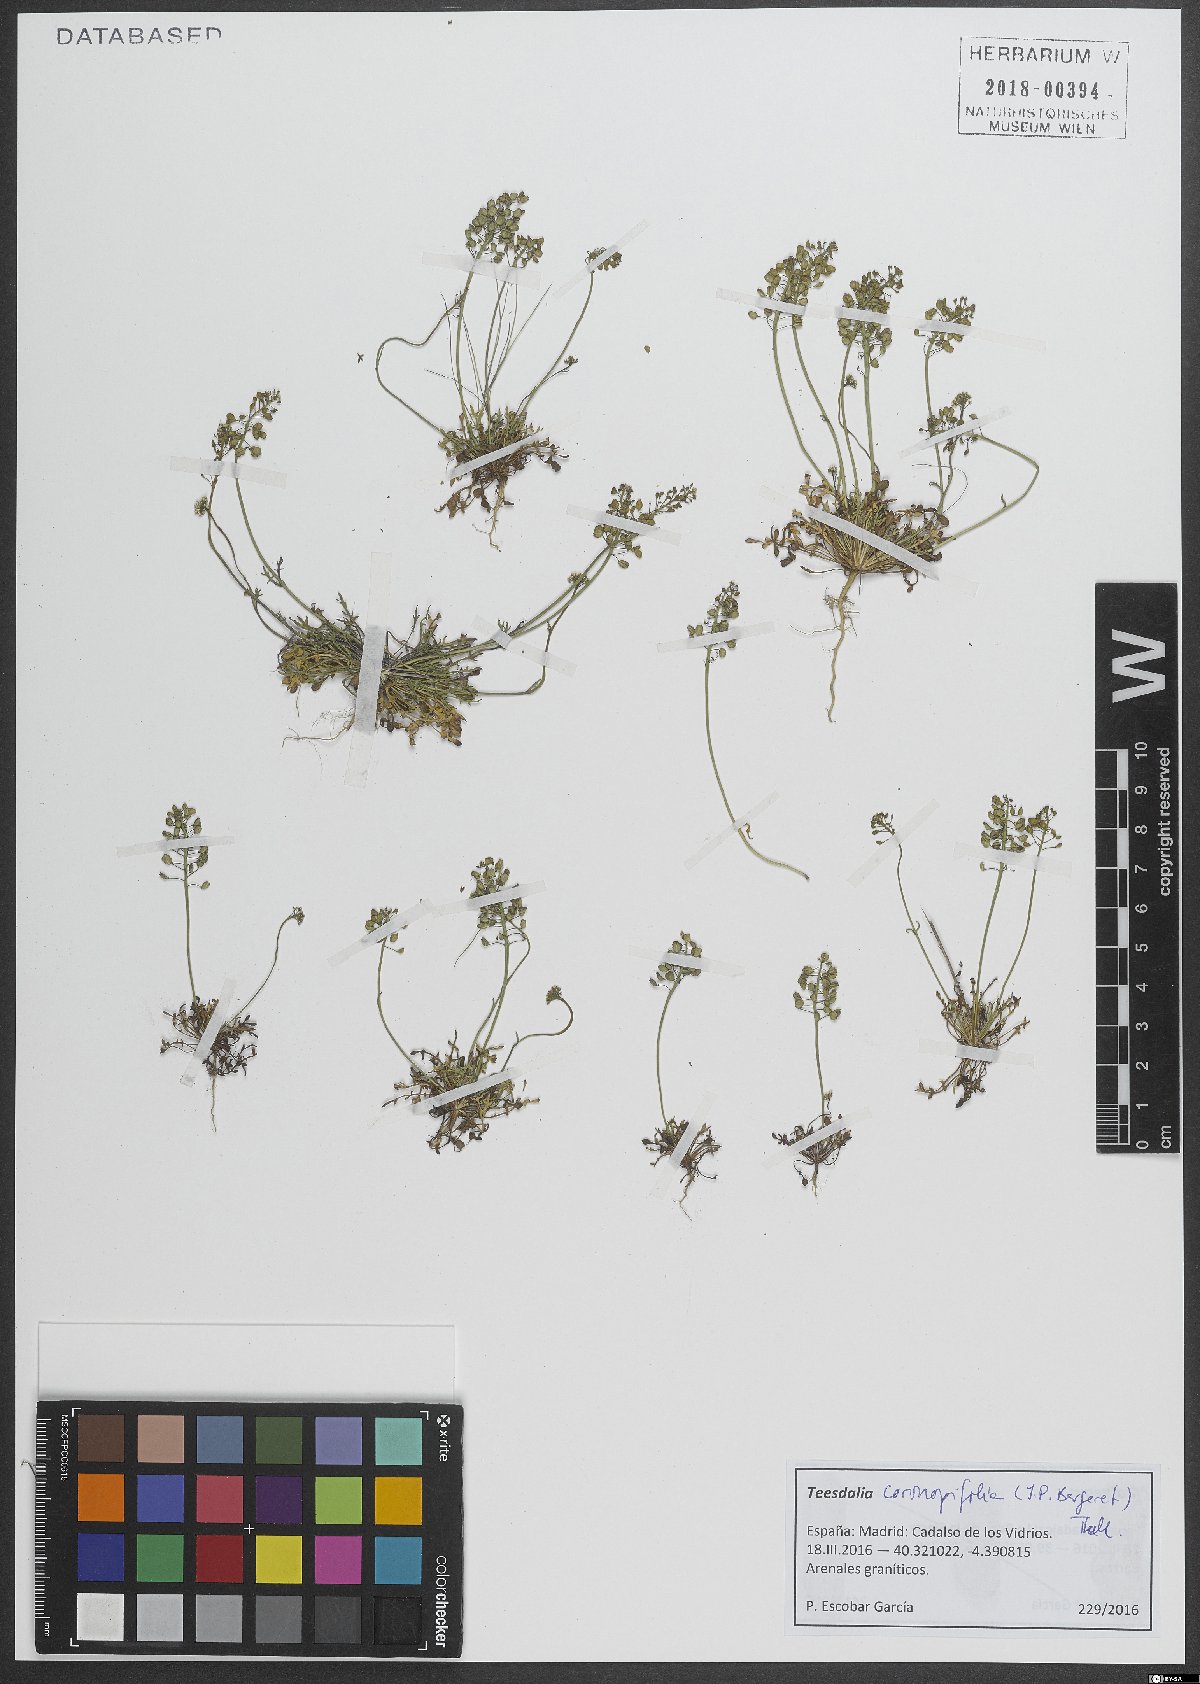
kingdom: Plantae
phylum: Tracheophyta
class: Magnoliopsida
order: Brassicales
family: Brassicaceae
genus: Teesdalia
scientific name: Teesdalia coronopifolia
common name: Lesser shepherdscress
